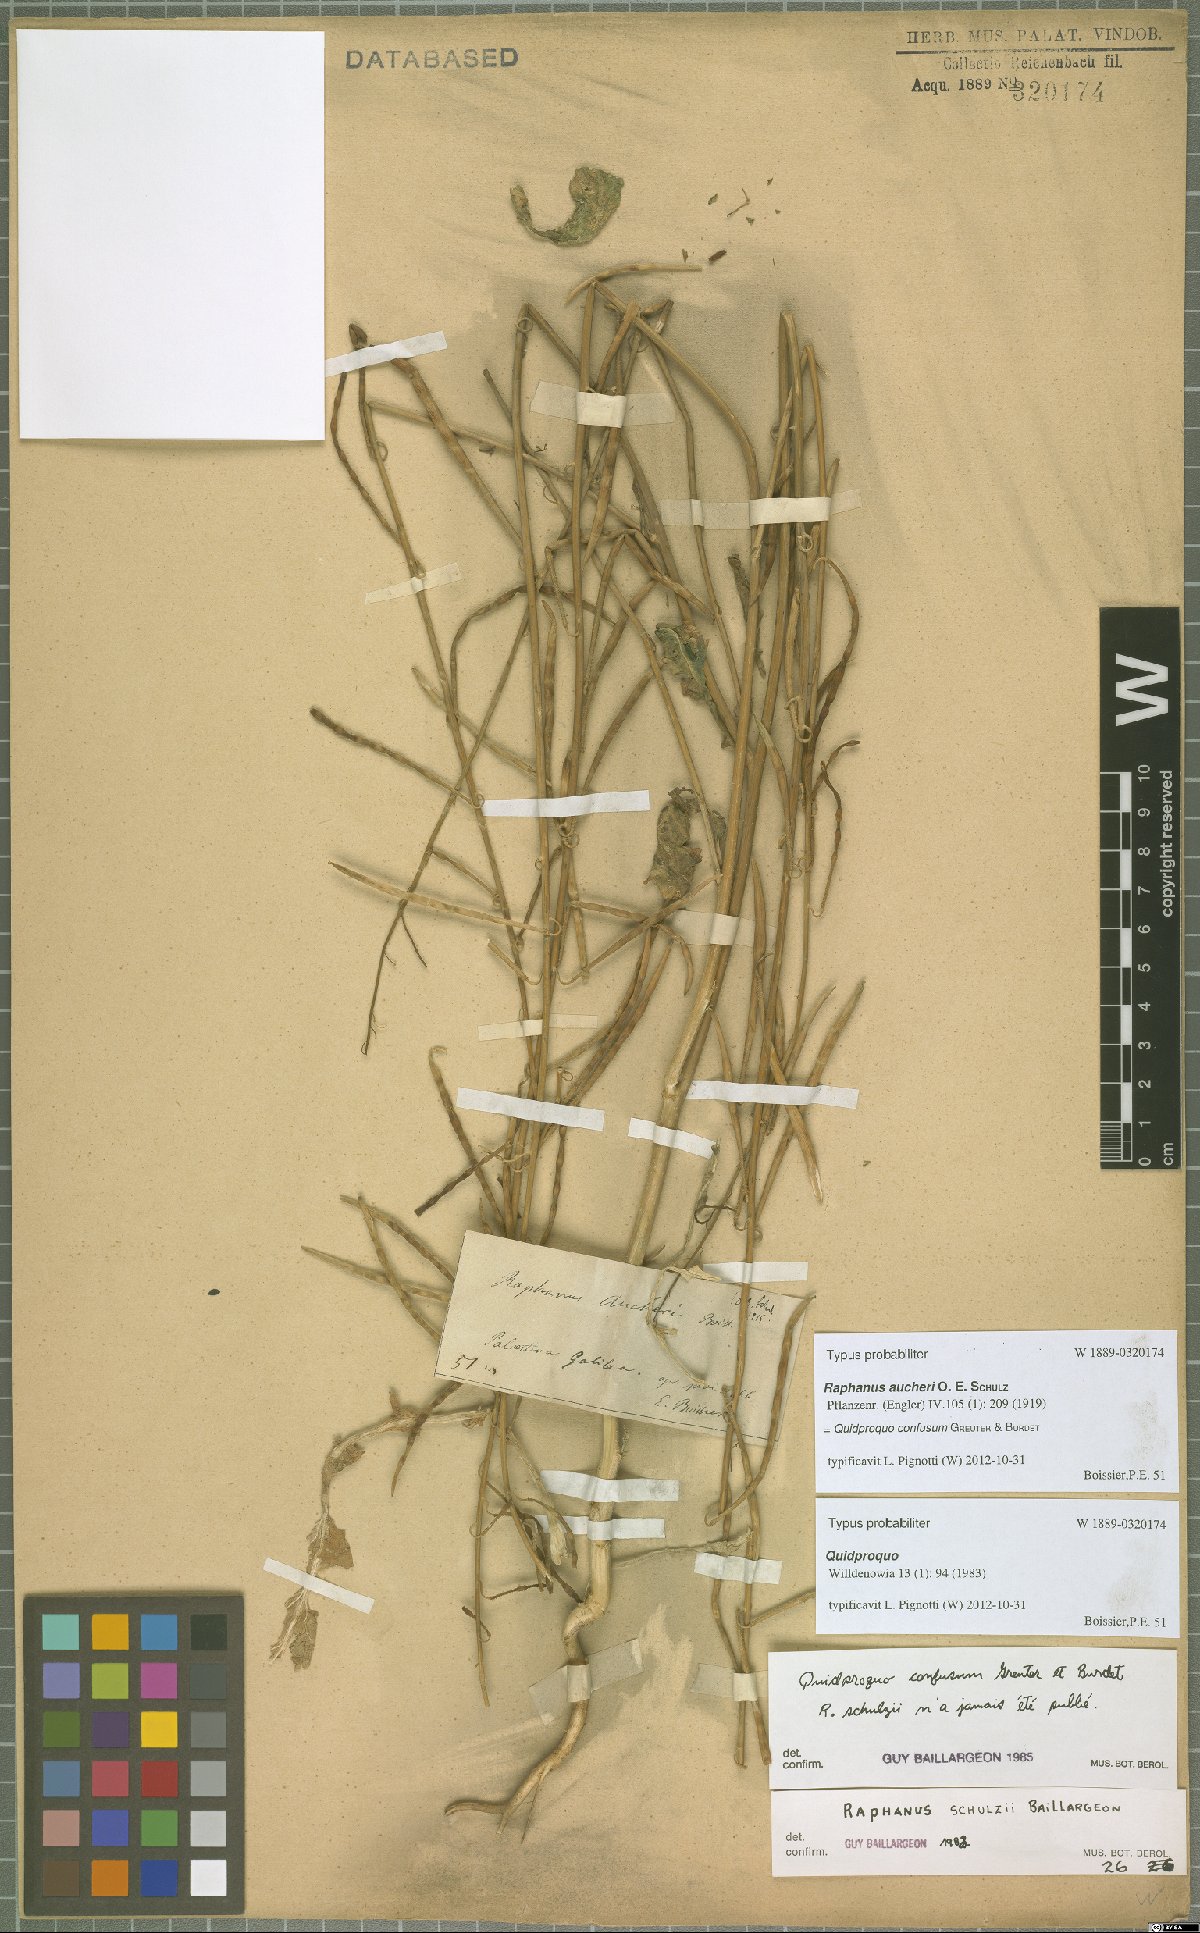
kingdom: Plantae
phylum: Tracheophyta
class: Magnoliopsida
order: Brassicales
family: Brassicaceae
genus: Raphanus
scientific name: Raphanus confusus
